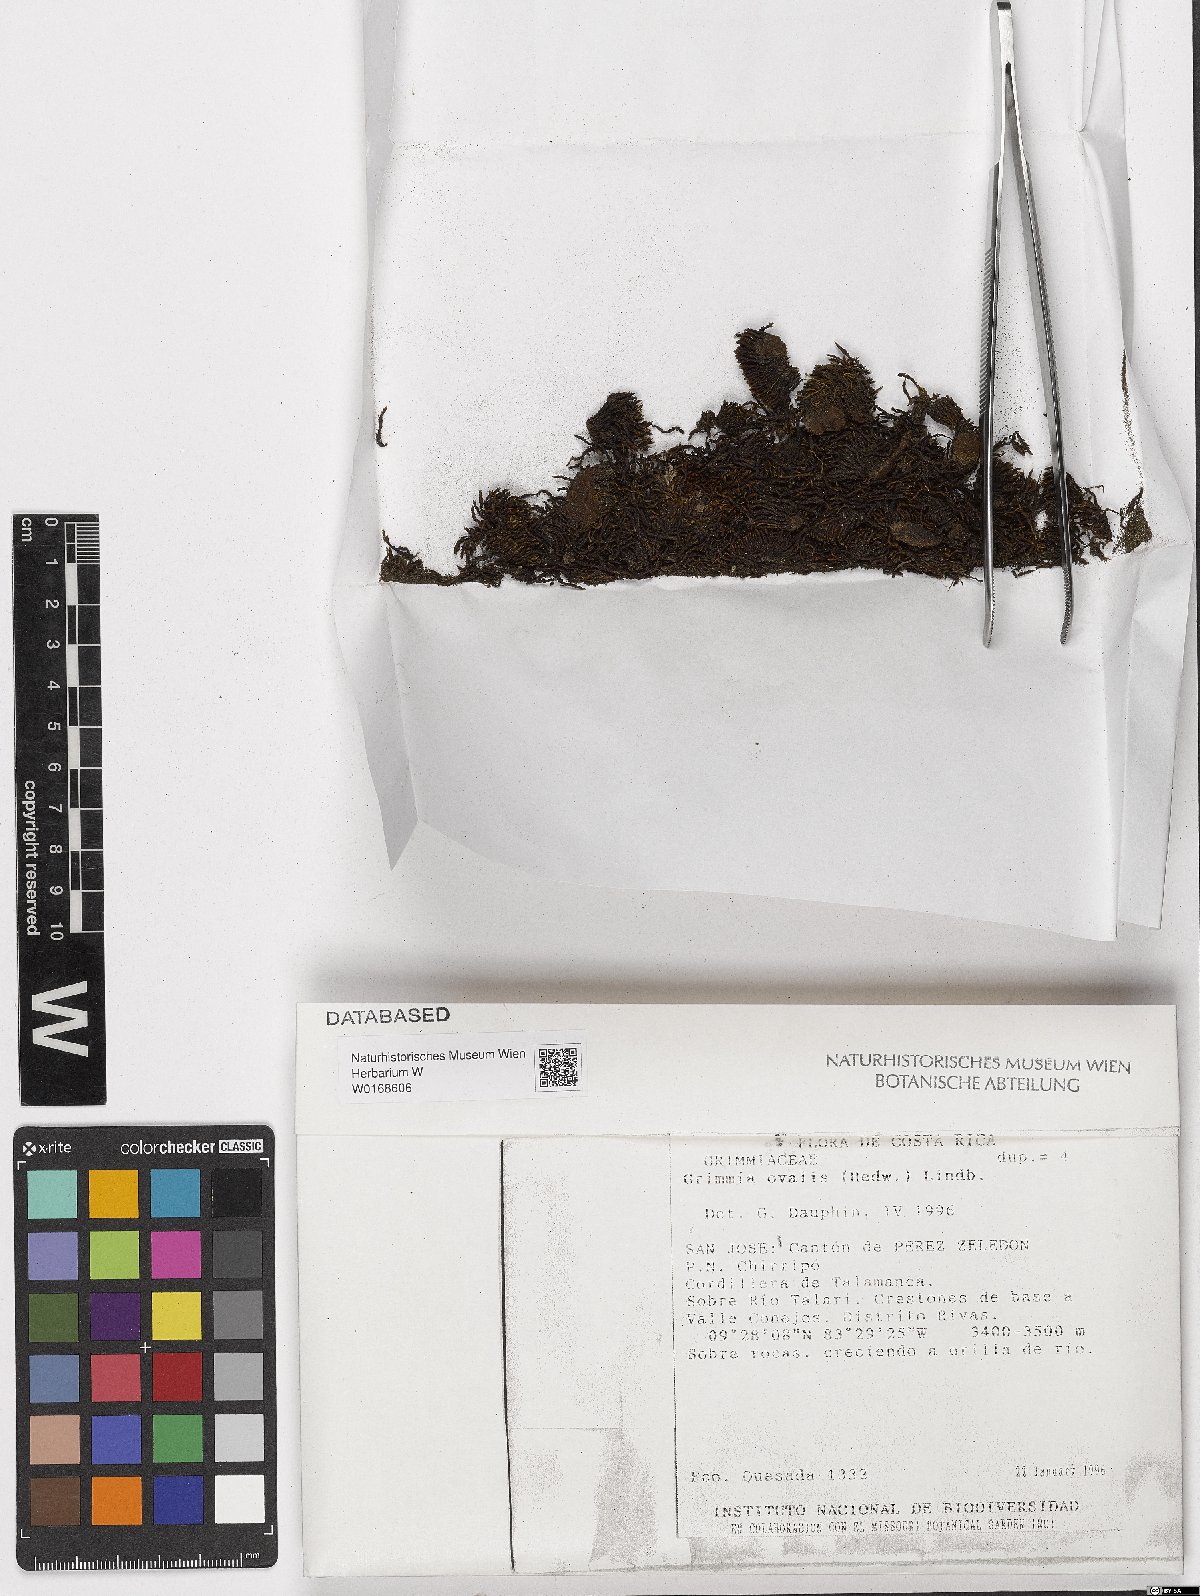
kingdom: Plantae
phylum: Bryophyta
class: Bryopsida
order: Grimmiales
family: Grimmiaceae
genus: Grimmia
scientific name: Grimmia ovalis
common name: Oval grimmia
